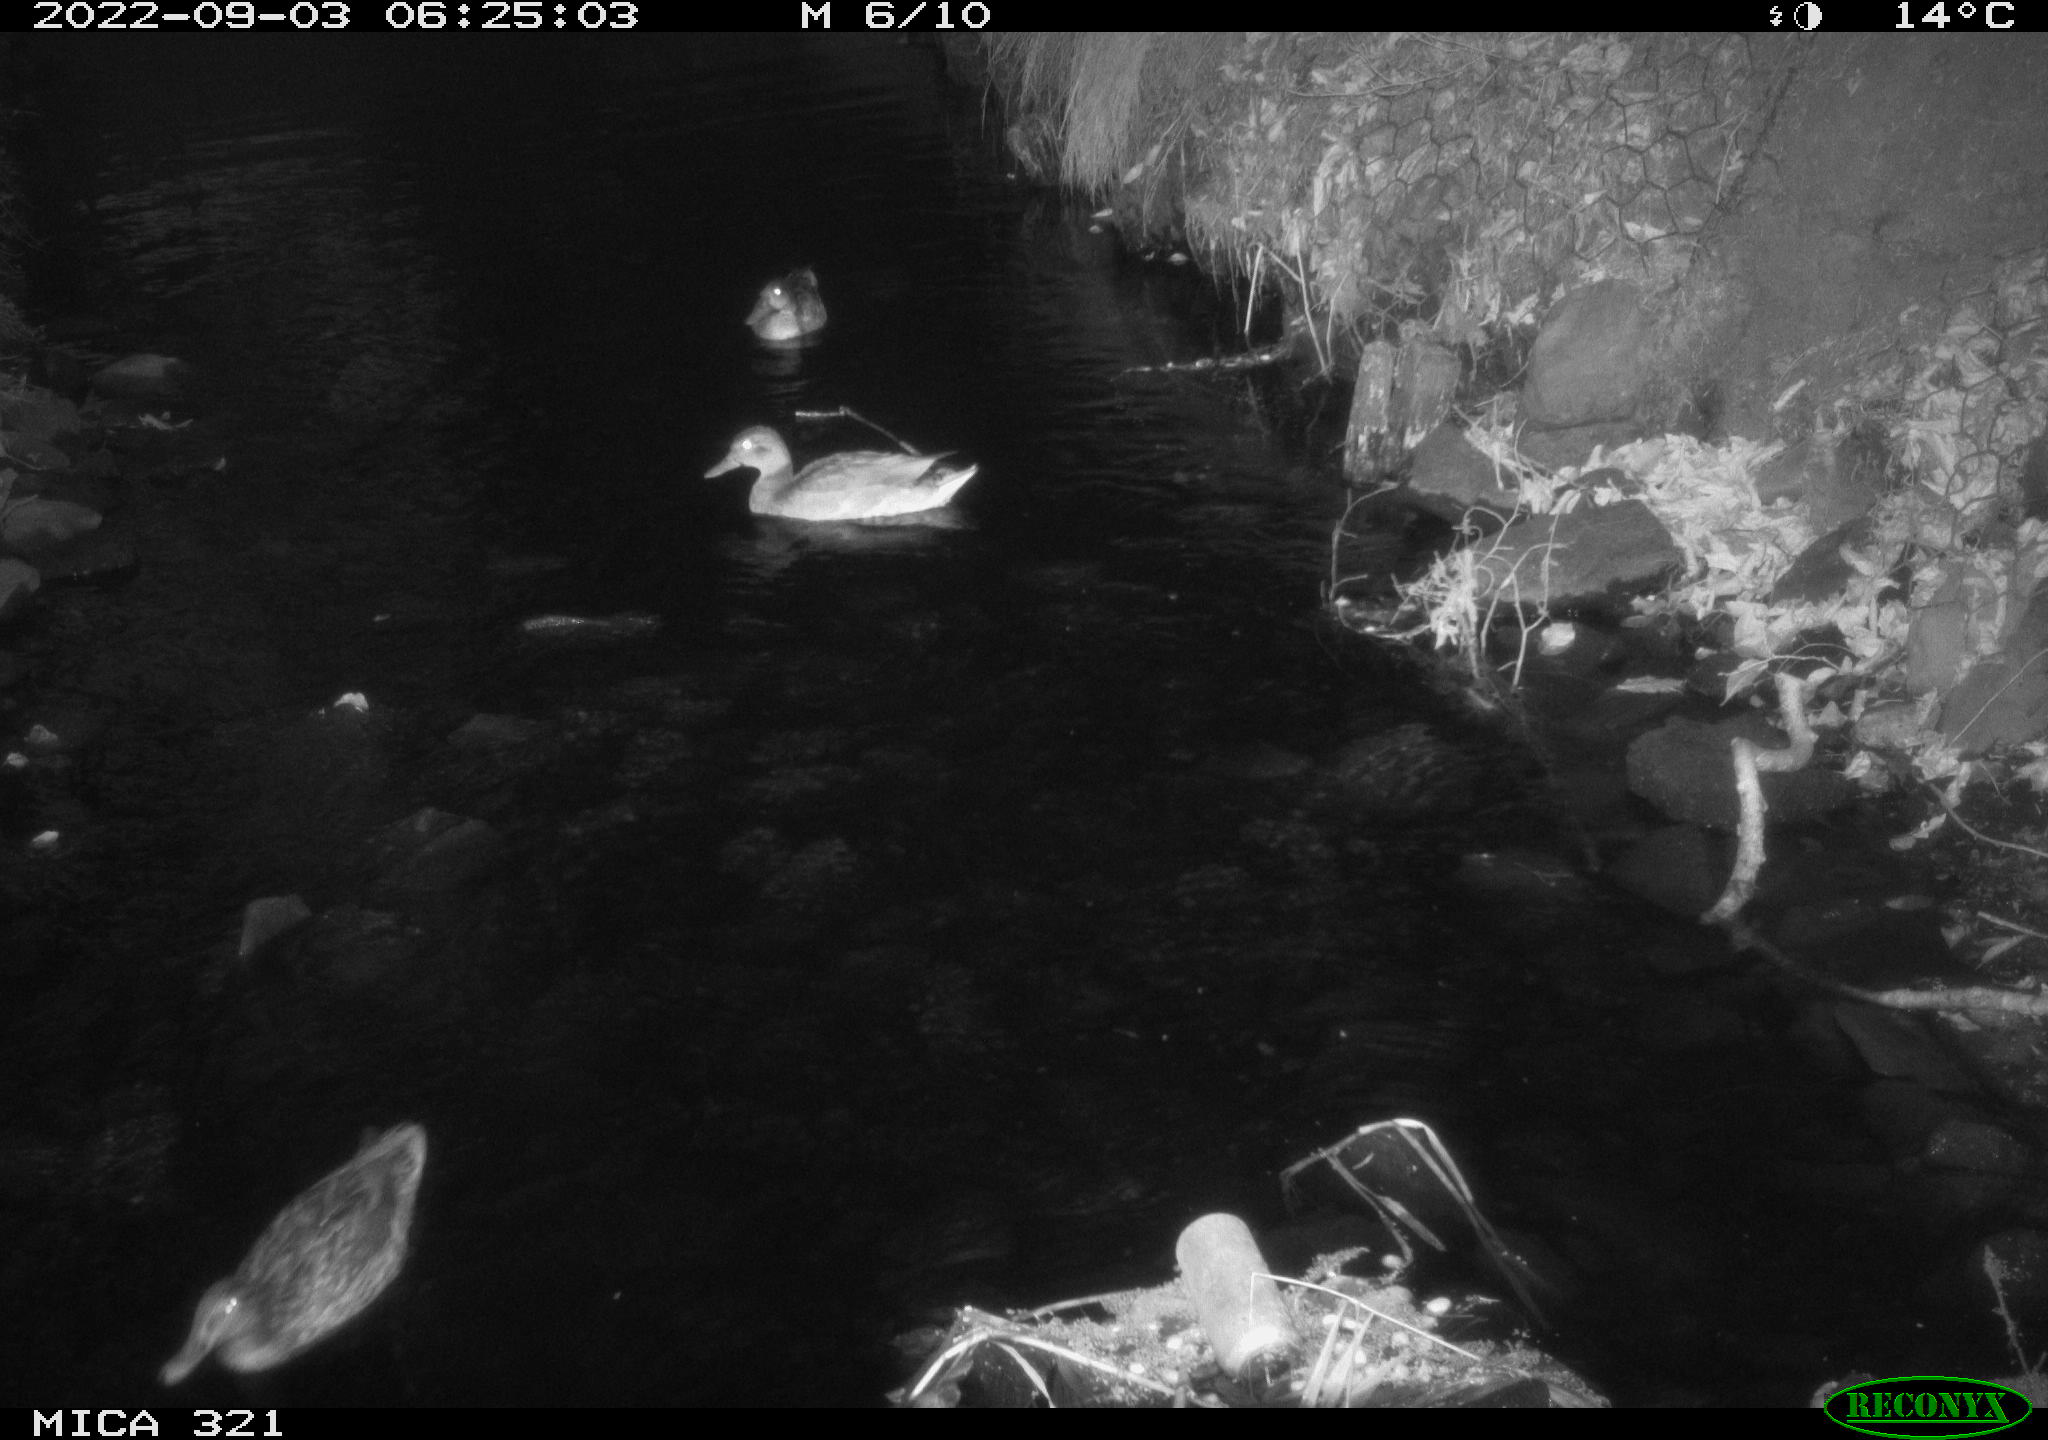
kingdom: Animalia
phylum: Chordata
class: Aves
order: Anseriformes
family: Anatidae
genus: Anas
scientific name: Anas platyrhynchos
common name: Mallard
